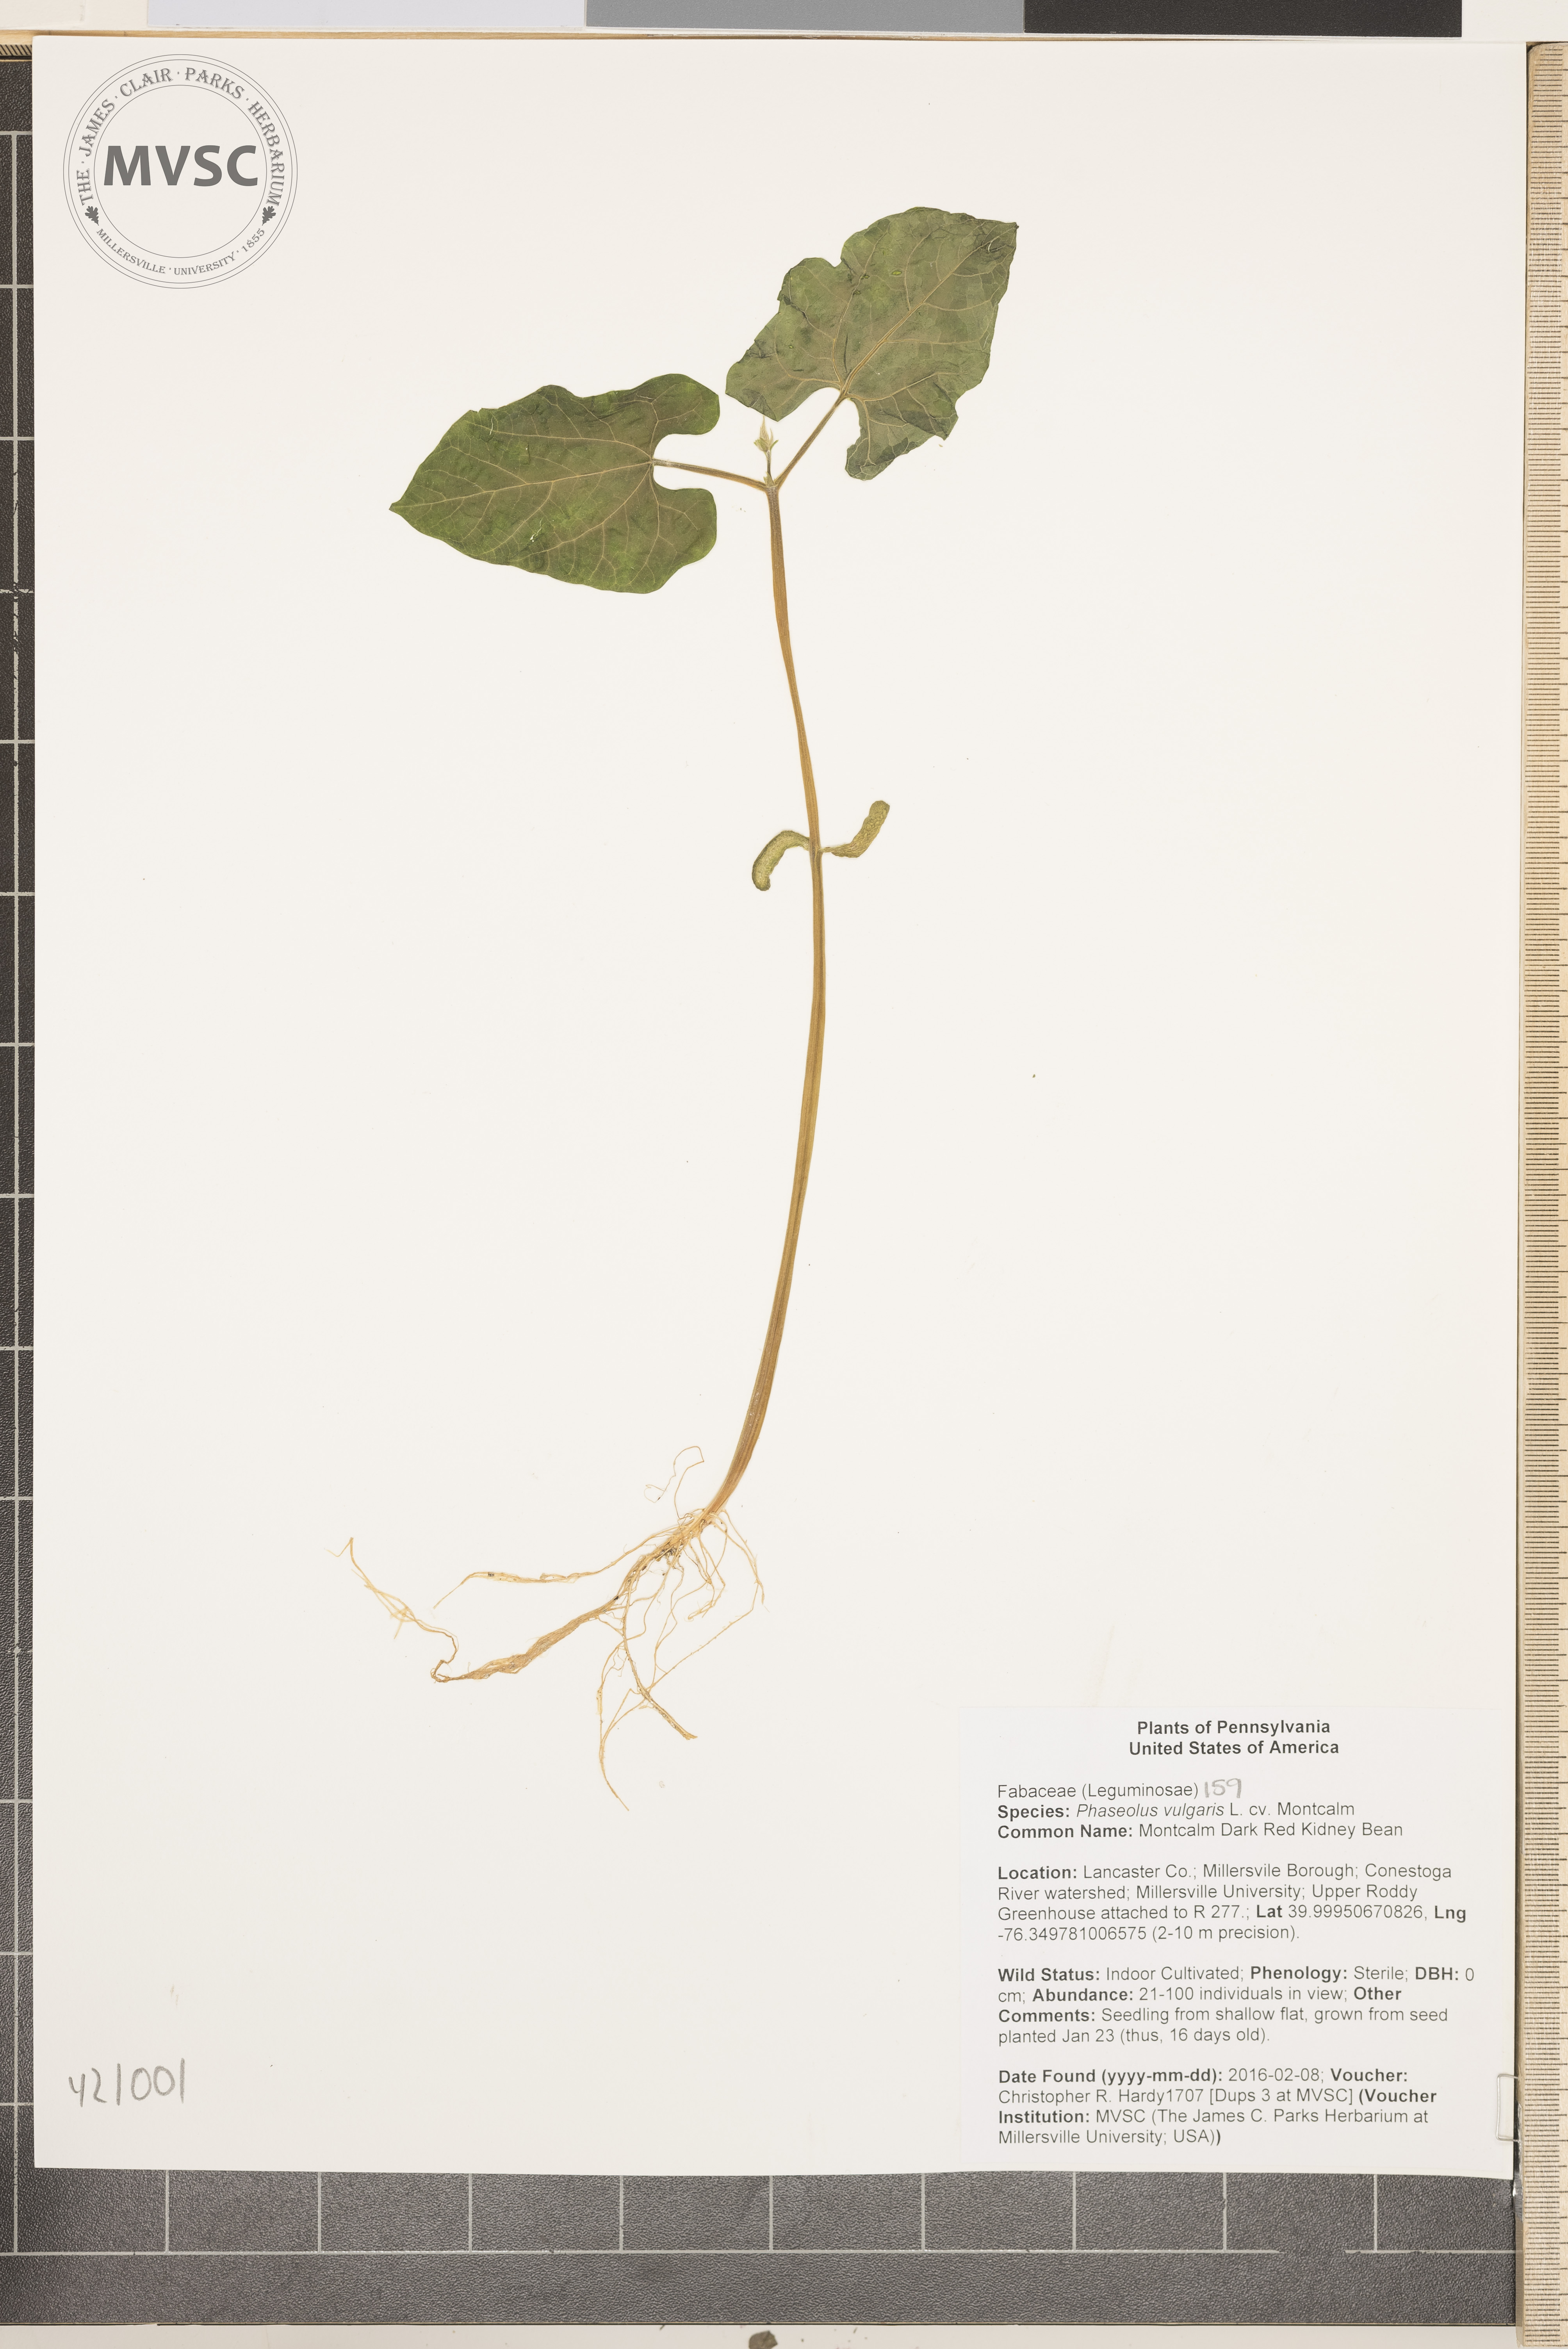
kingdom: Plantae
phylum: Tracheophyta
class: Magnoliopsida
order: Fabales
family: Fabaceae
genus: Phaseolus
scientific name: Phaseolus vulgaris
